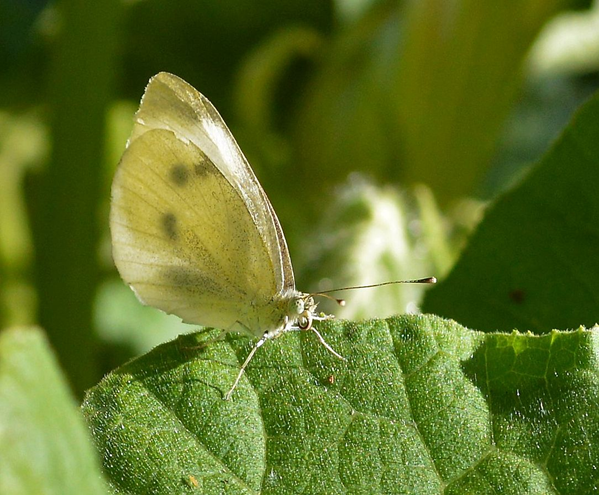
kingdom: Animalia
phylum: Arthropoda
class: Insecta
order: Lepidoptera
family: Pieridae
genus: Pieris
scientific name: Pieris rapae
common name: Cabbage White
